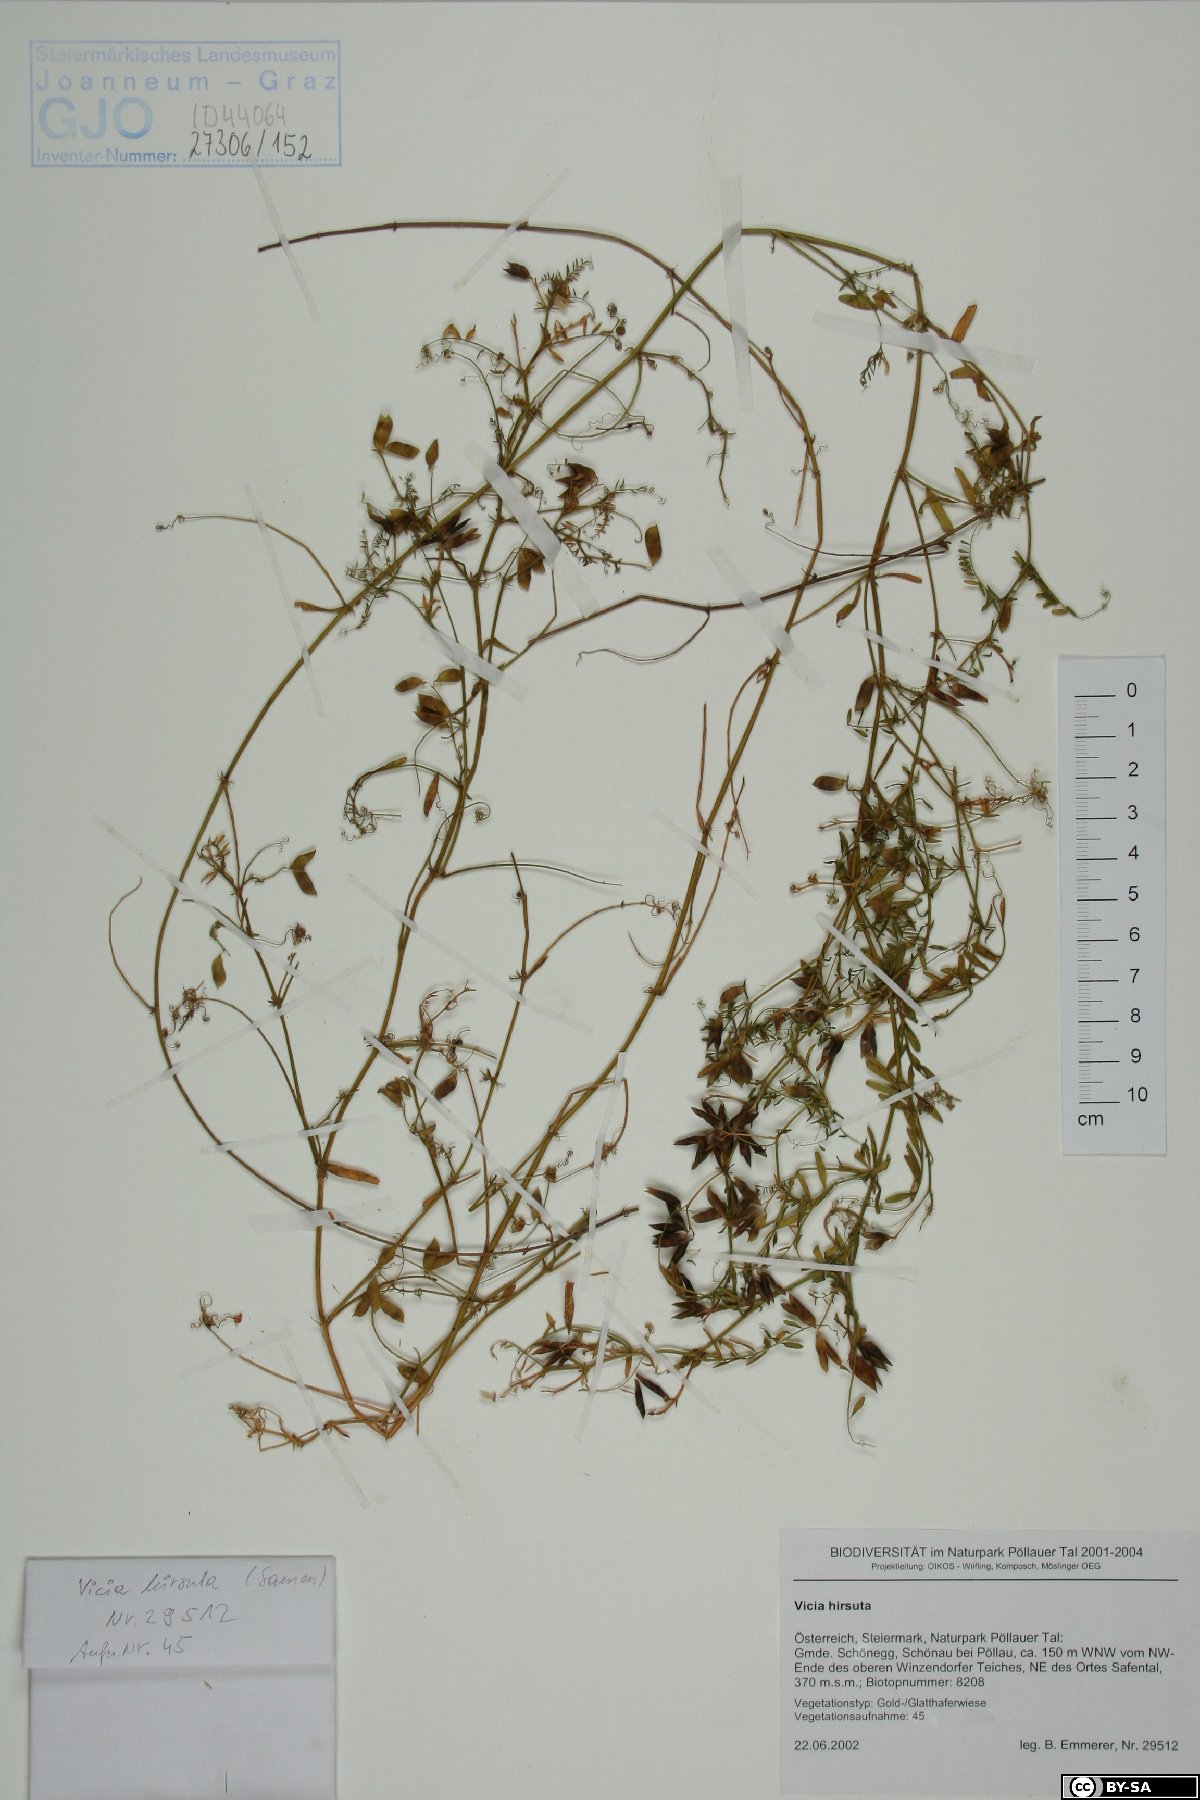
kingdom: Plantae
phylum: Tracheophyta
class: Magnoliopsida
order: Fabales
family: Fabaceae
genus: Vicia
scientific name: Vicia hirsuta
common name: Tiny vetch
